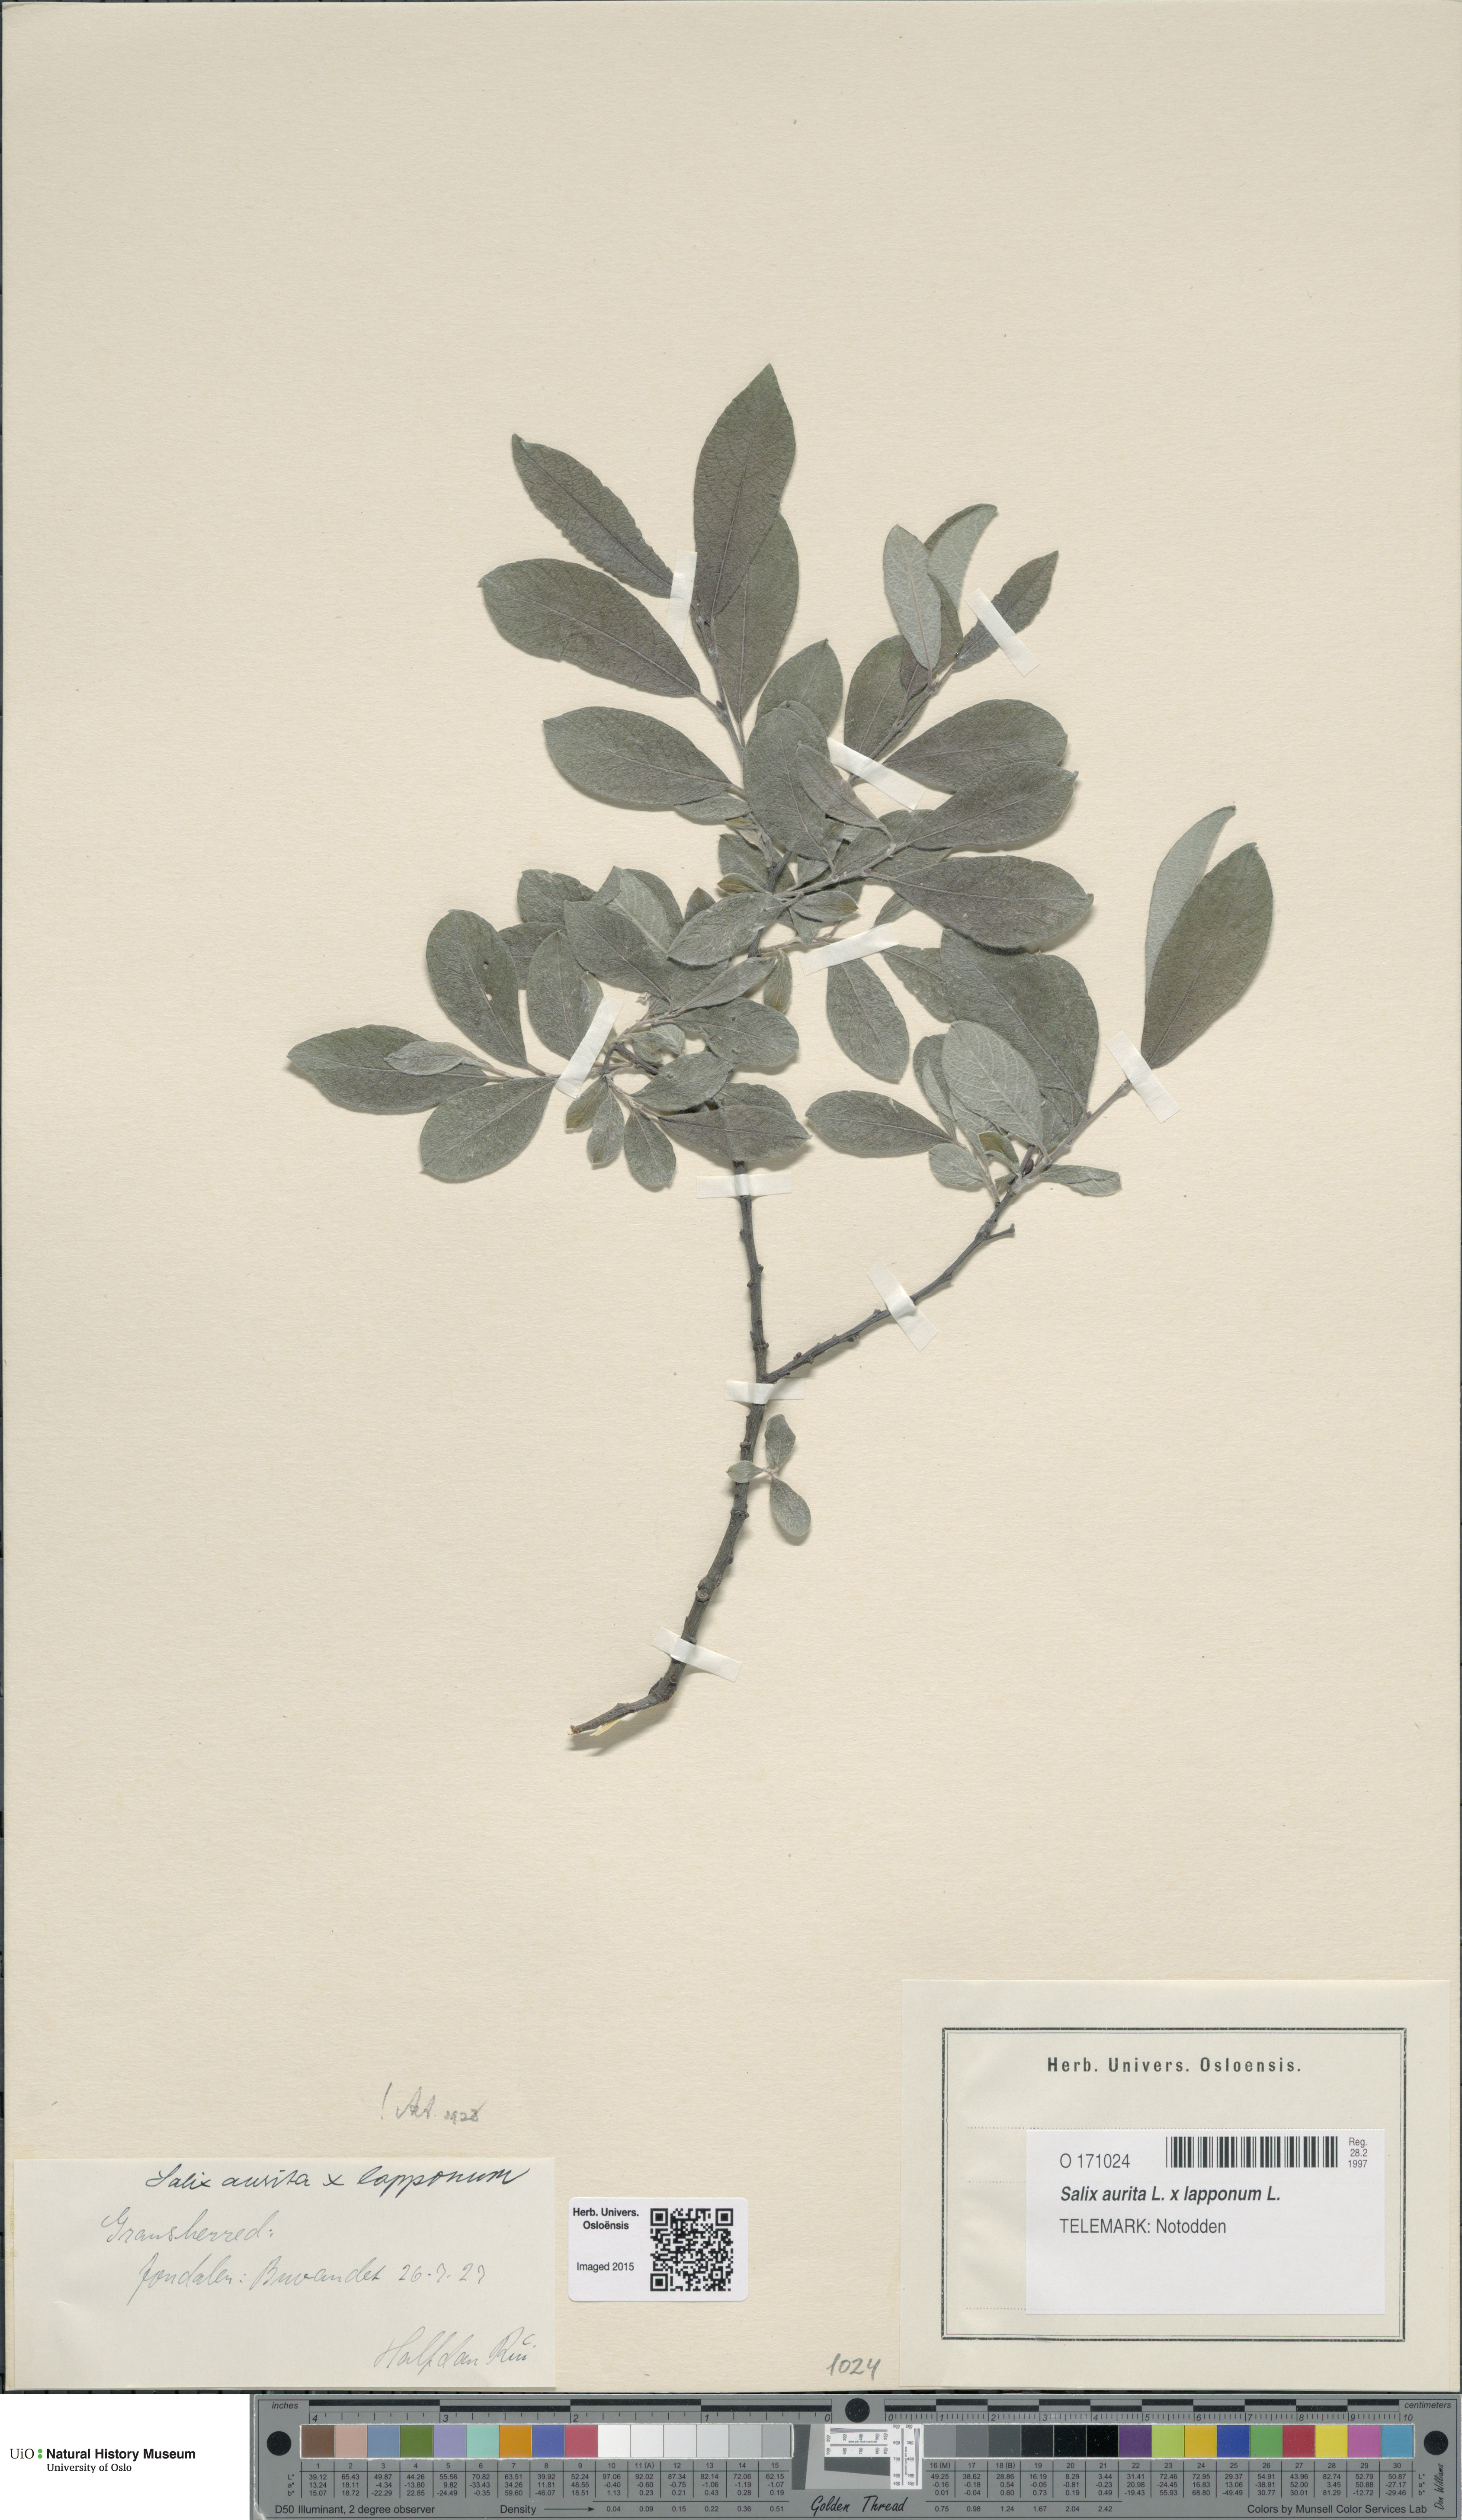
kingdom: Plantae
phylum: Tracheophyta
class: Magnoliopsida
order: Malpighiales
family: Salicaceae
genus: Salix
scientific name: Salix
